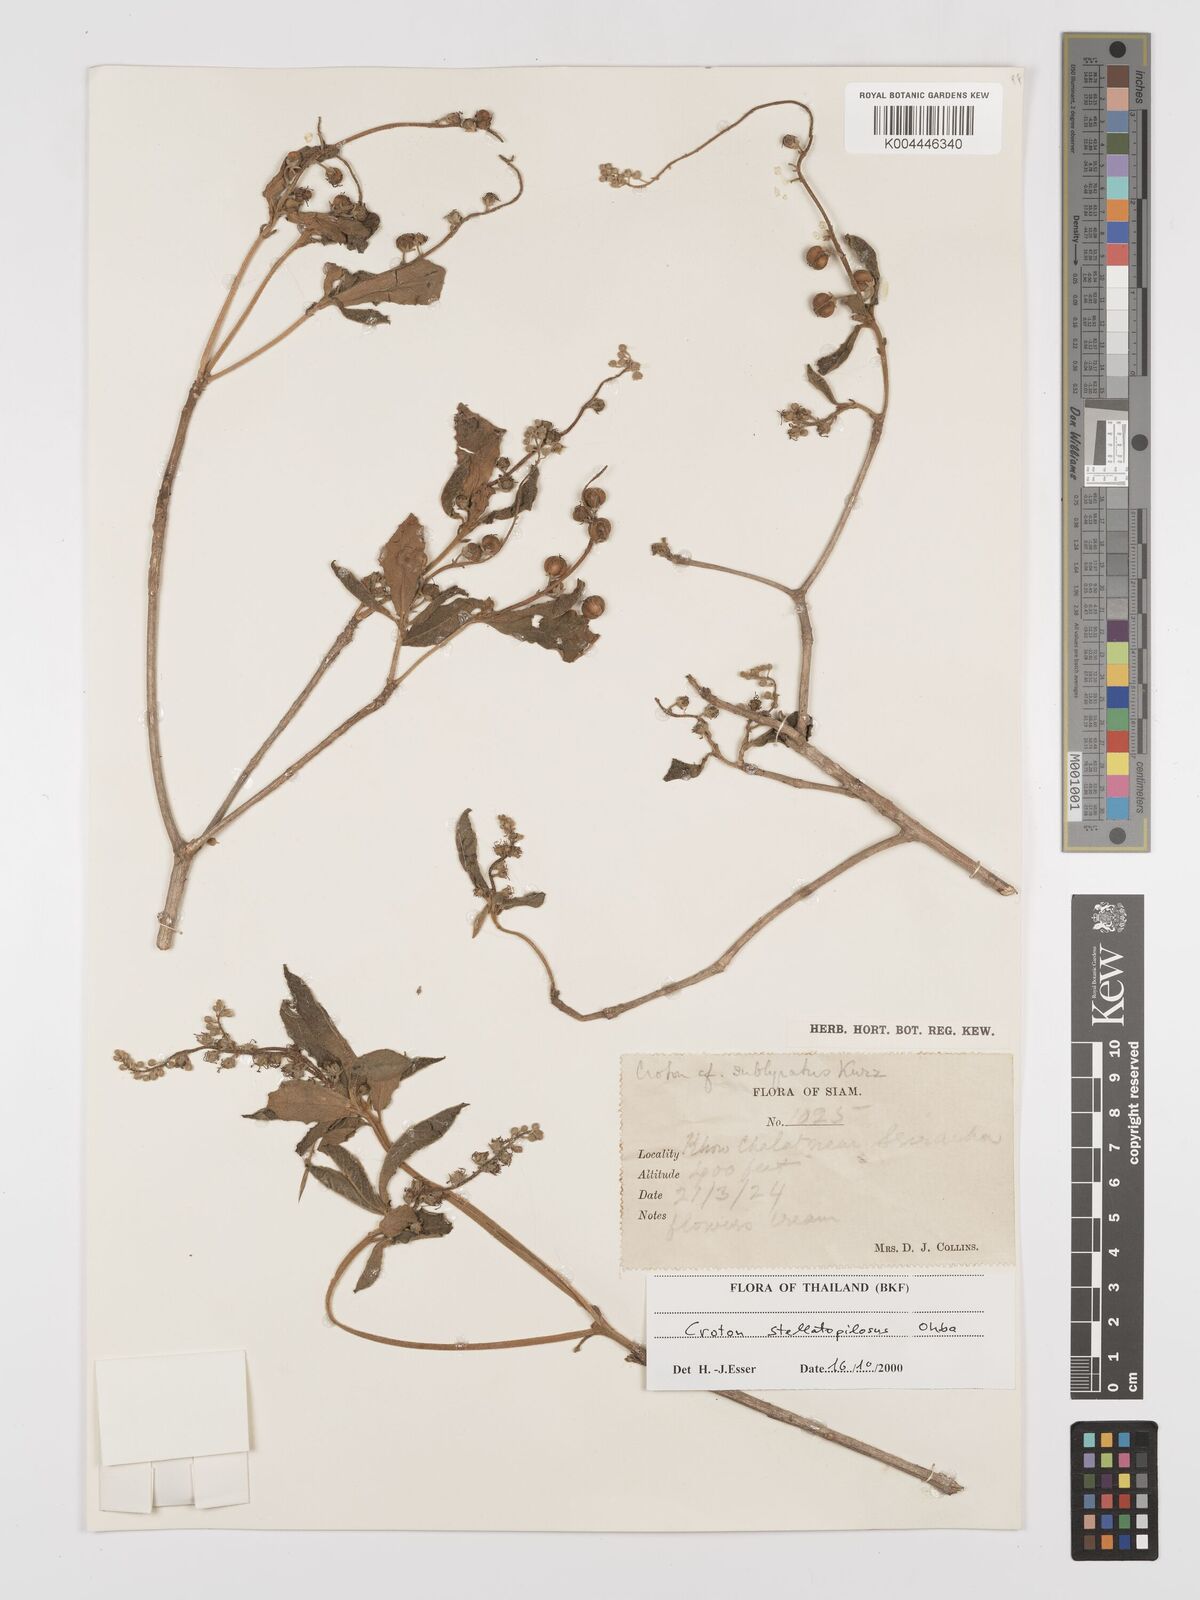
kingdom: Plantae
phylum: Tracheophyta
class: Magnoliopsida
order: Malpighiales
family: Euphorbiaceae
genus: Croton
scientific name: Croton stellatopilosus
